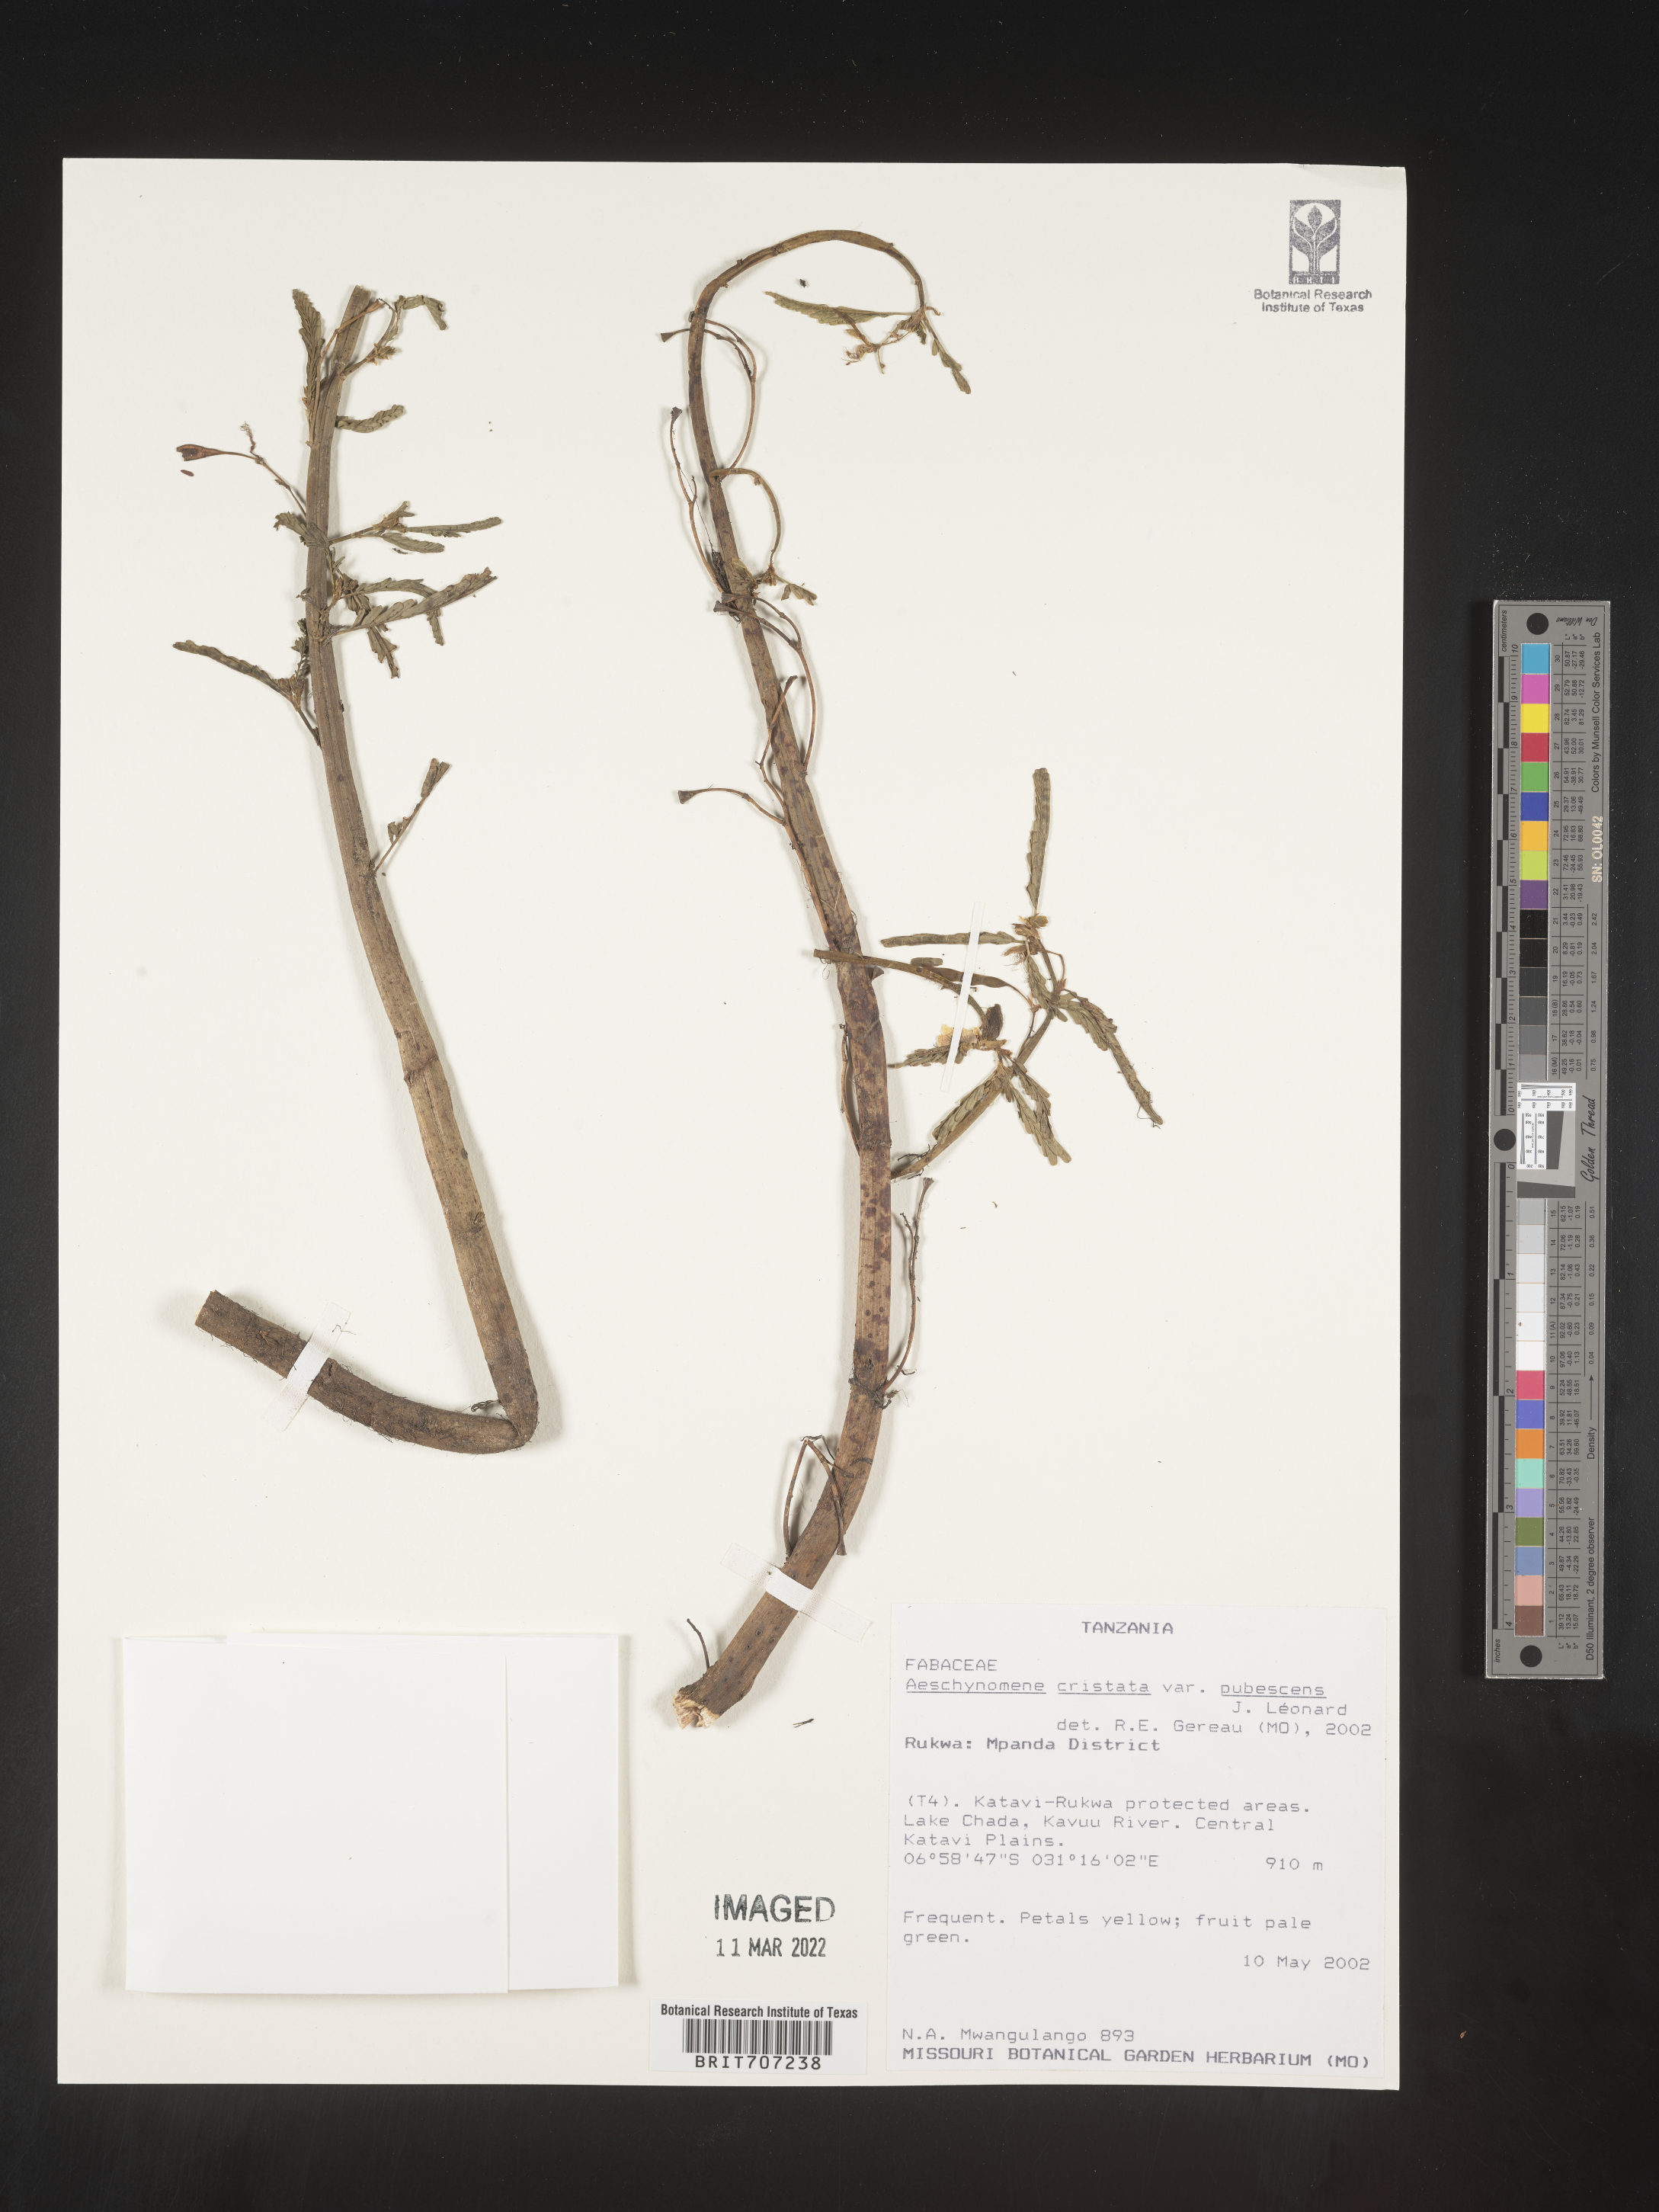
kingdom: Plantae
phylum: Tracheophyta
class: Magnoliopsida
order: Fabales
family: Fabaceae
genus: Aeschynomene
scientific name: Aeschynomene
